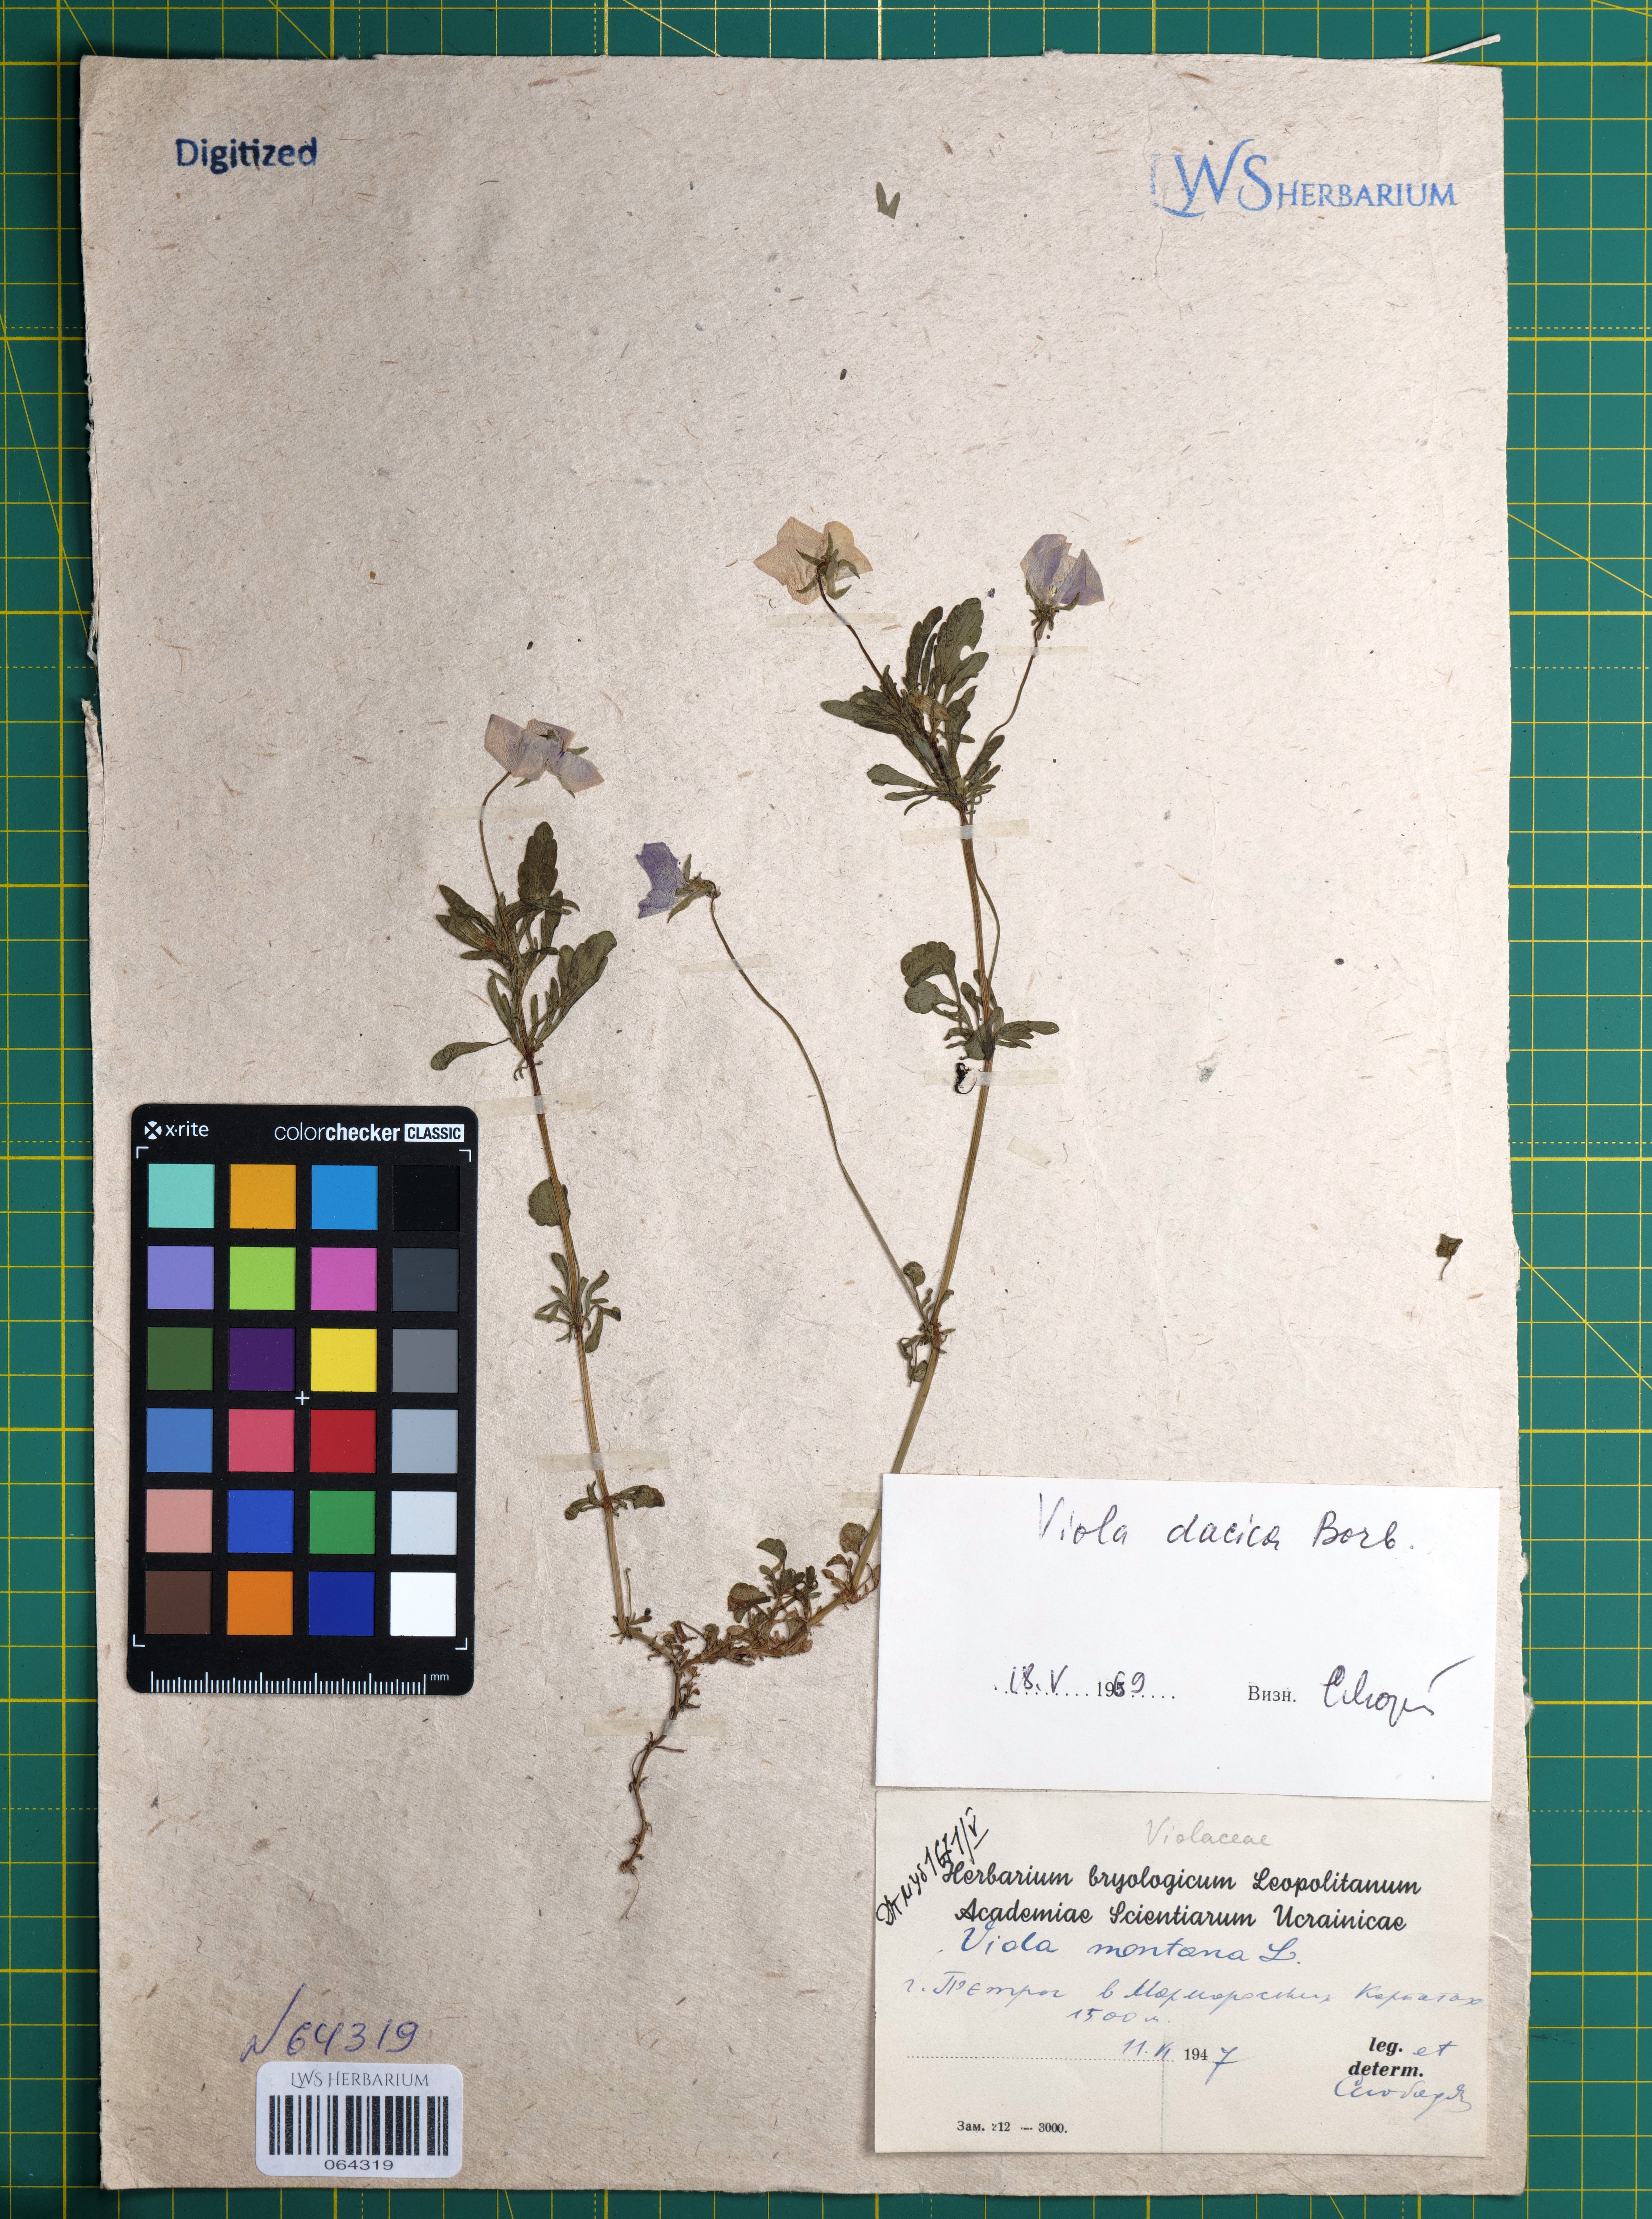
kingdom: Plantae
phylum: Tracheophyta
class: Magnoliopsida
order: Malpighiales
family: Violaceae
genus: Viola
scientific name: Viola dacica
